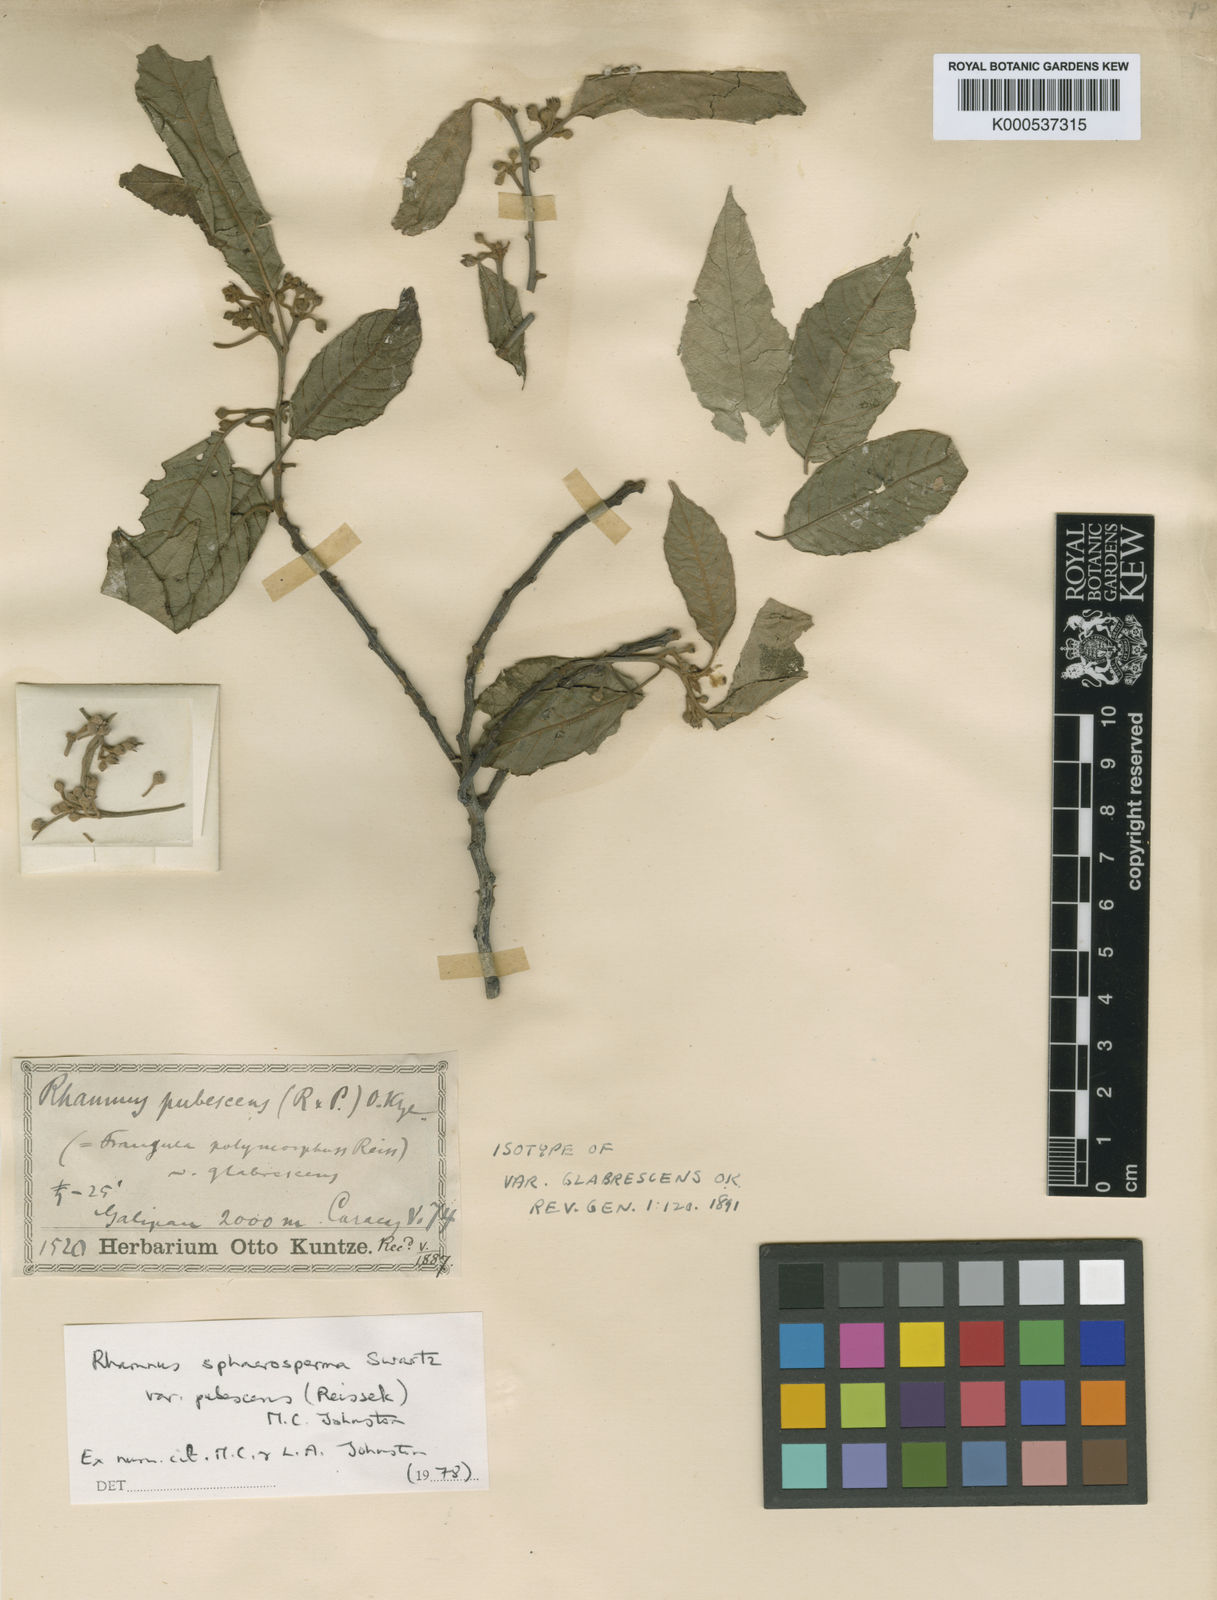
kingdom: Plantae
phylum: Tracheophyta
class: Magnoliopsida
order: Rosales
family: Rhamnaceae
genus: Frangula
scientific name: Frangula
